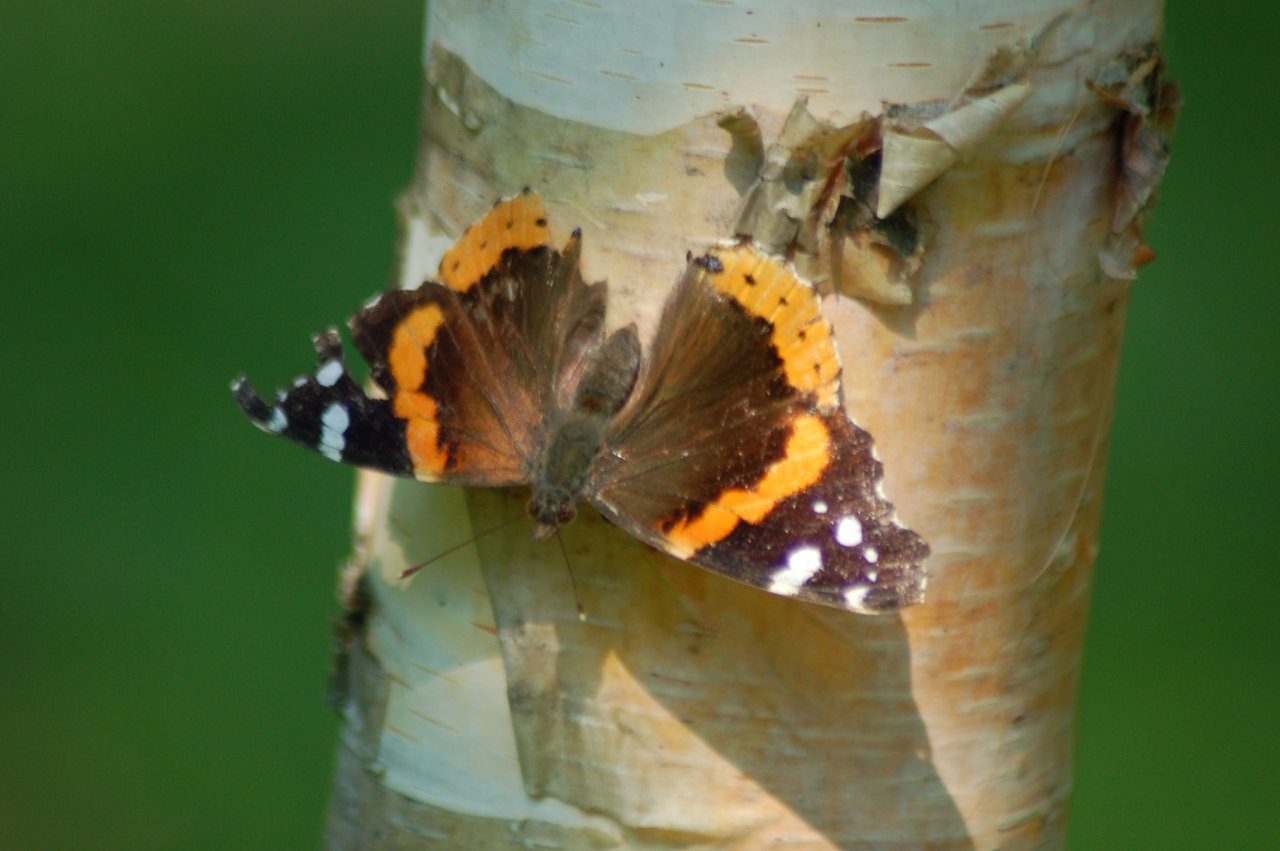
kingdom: Animalia
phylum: Arthropoda
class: Insecta
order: Lepidoptera
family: Nymphalidae
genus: Vanessa
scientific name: Vanessa atalanta
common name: Red Admiral
